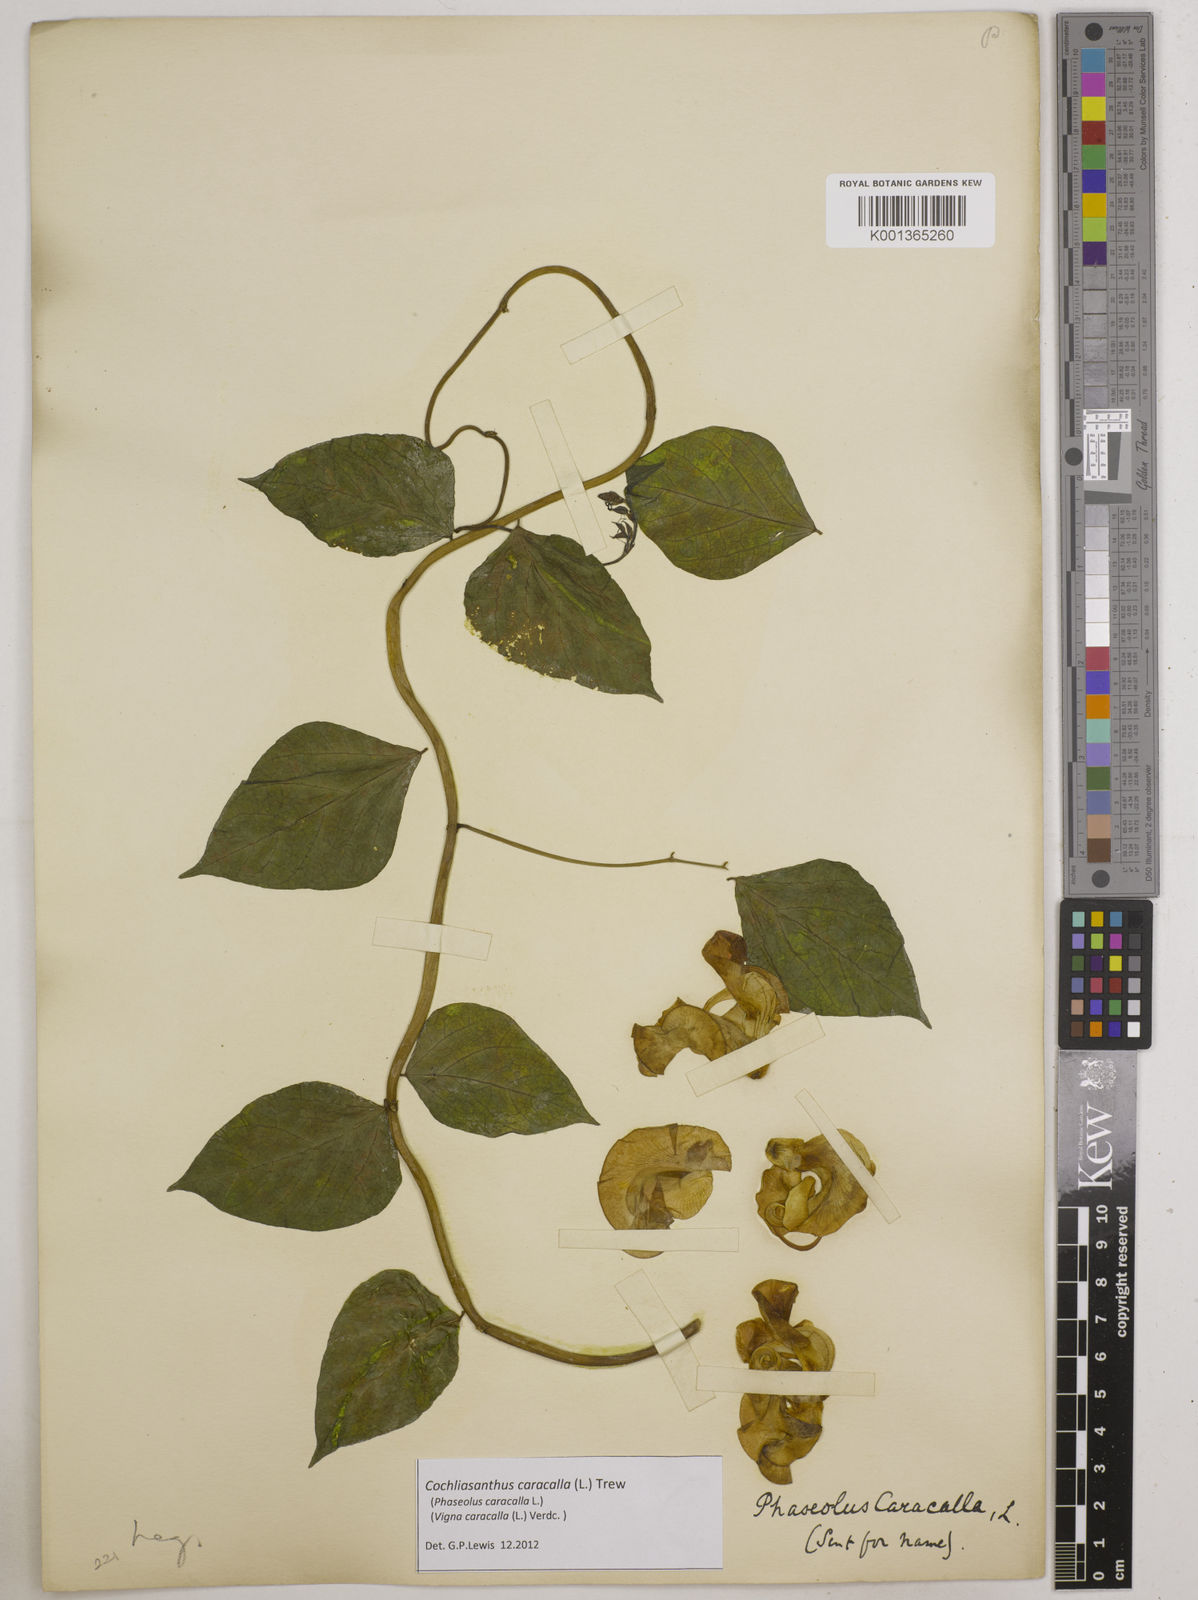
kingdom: Plantae
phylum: Tracheophyta
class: Magnoliopsida
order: Fabales
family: Fabaceae
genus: Cochliasanthus
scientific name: Cochliasanthus caracalla
